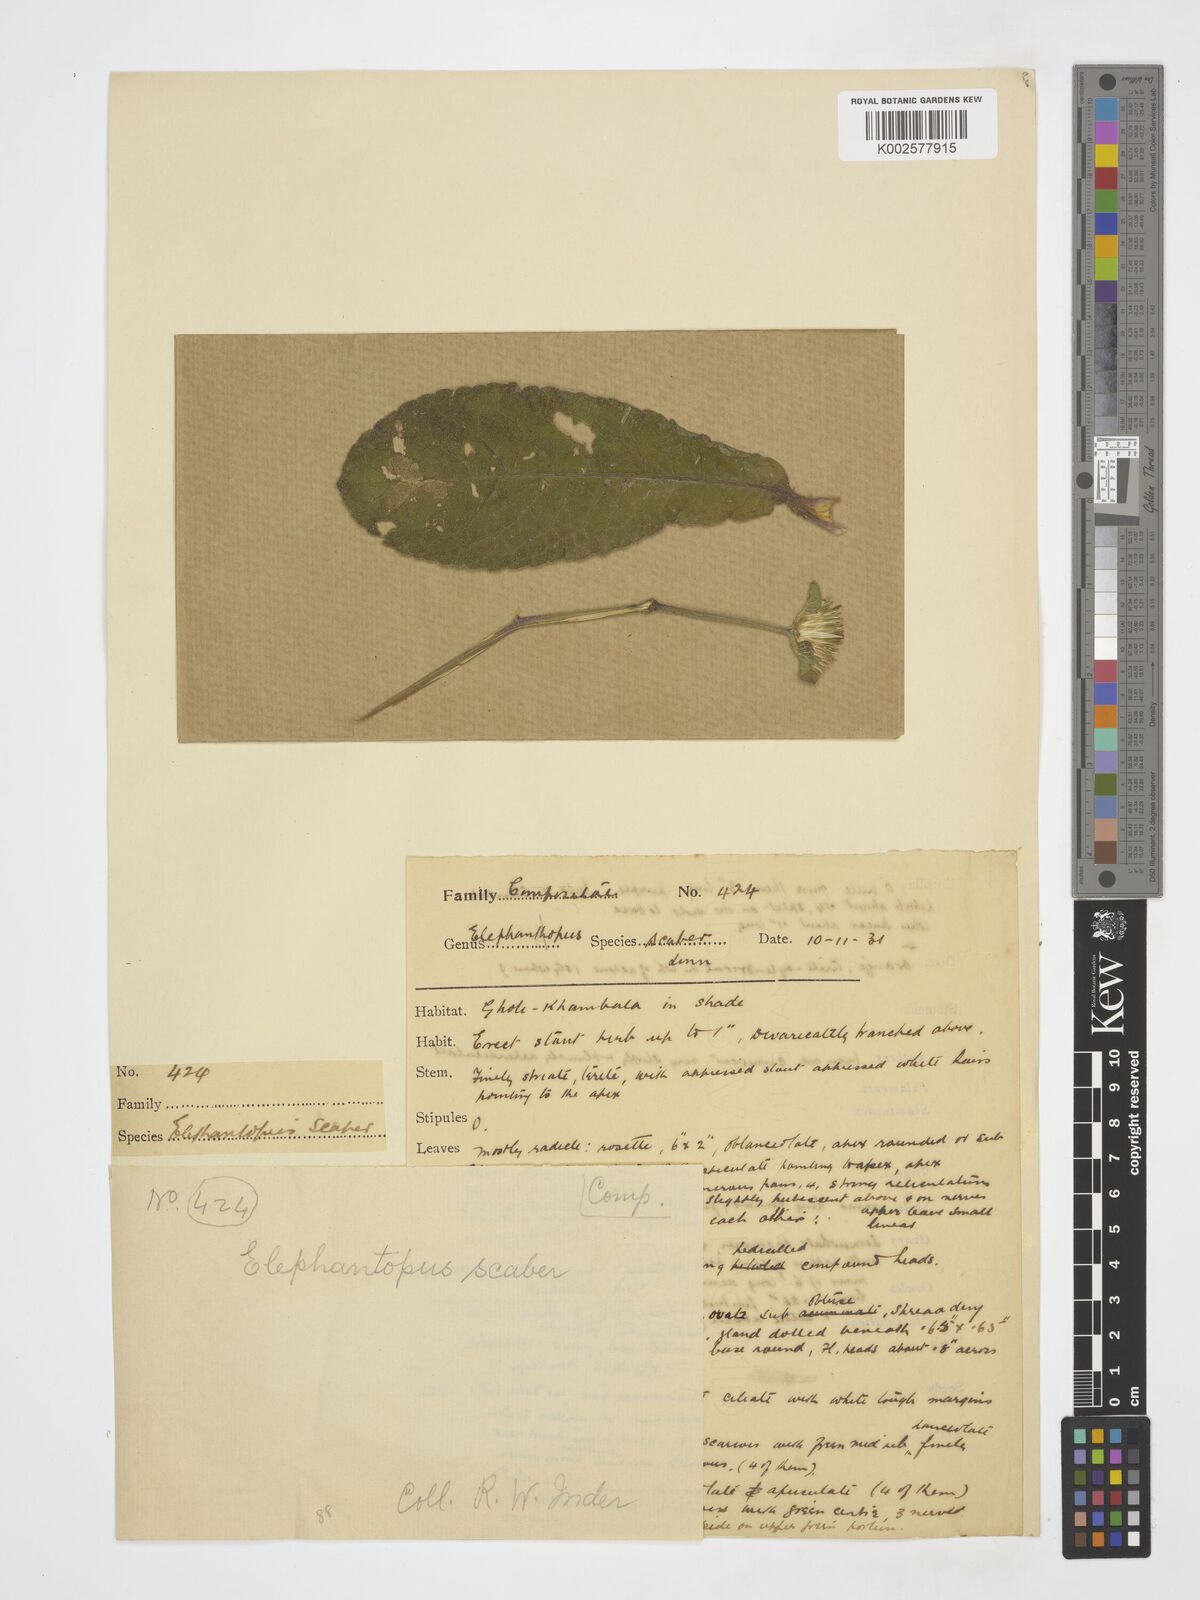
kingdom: Plantae
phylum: Tracheophyta
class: Magnoliopsida
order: Asterales
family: Asteraceae
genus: Elephantopus
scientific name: Elephantopus scaber
